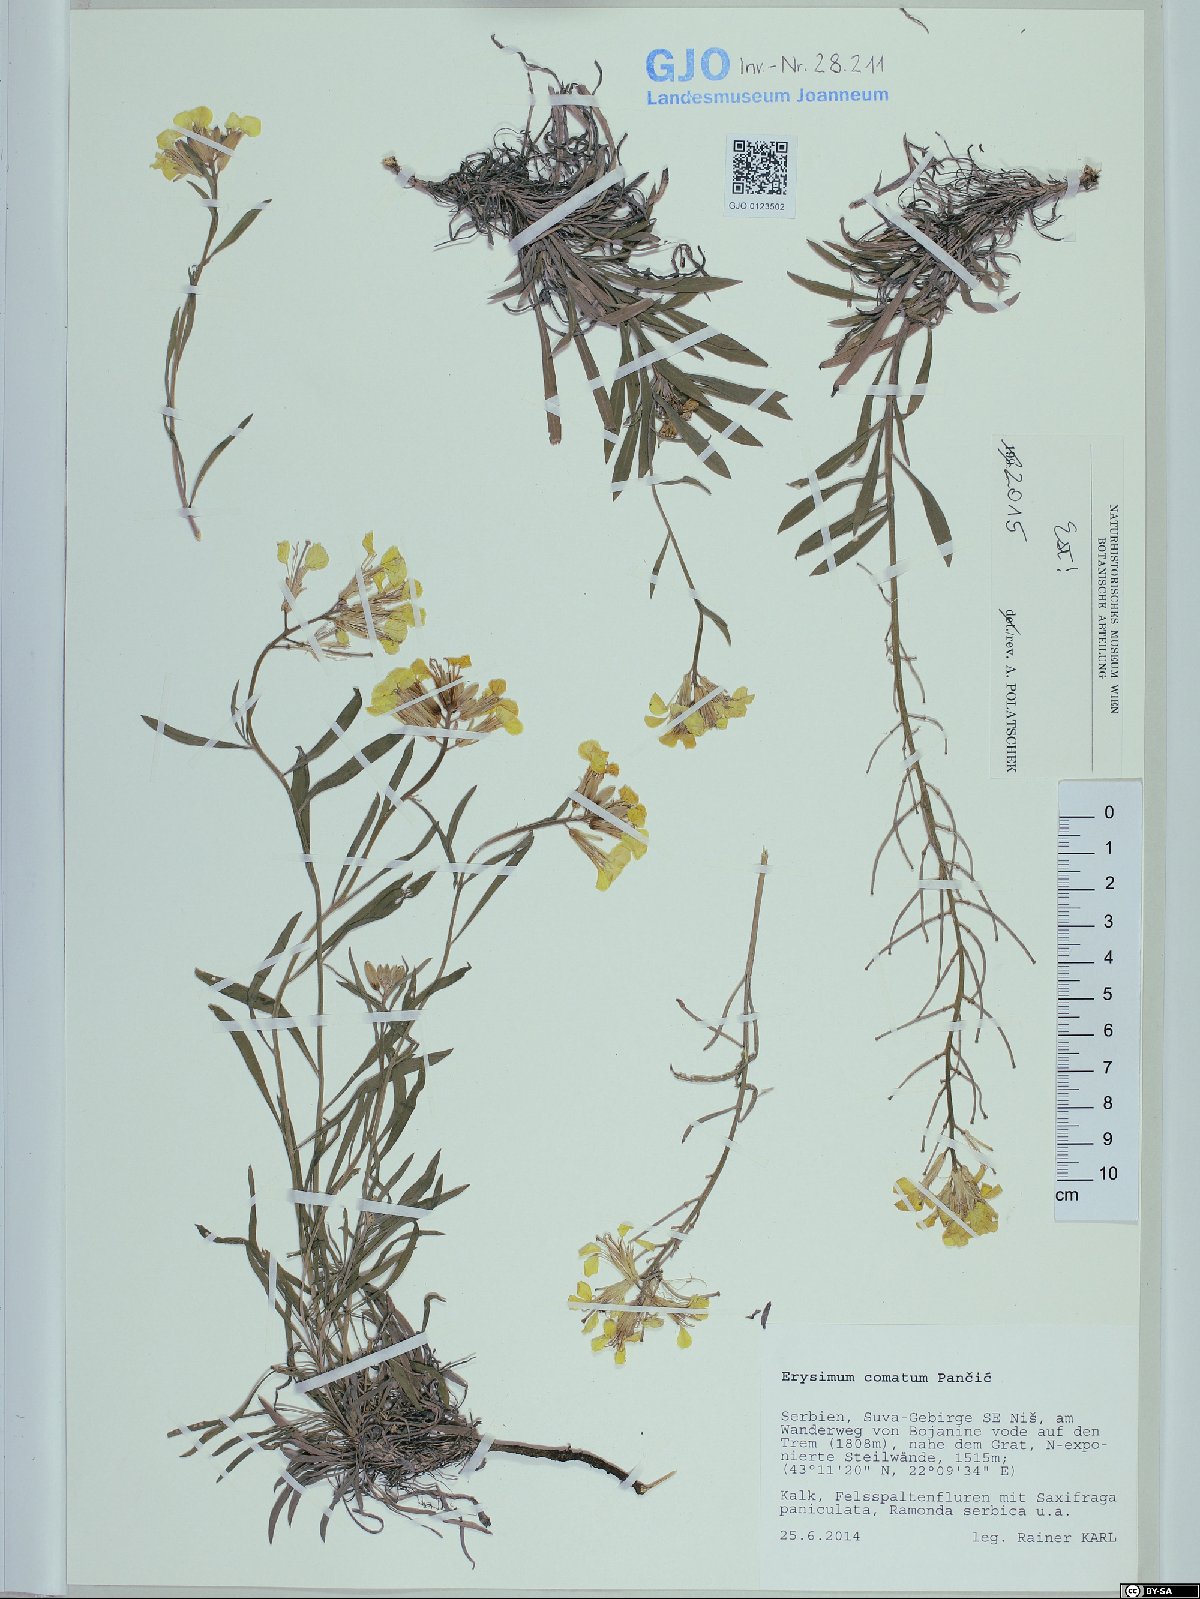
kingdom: Plantae
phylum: Tracheophyta
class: Magnoliopsida
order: Brassicales
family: Brassicaceae
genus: Erysimum
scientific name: Erysimum comatum
